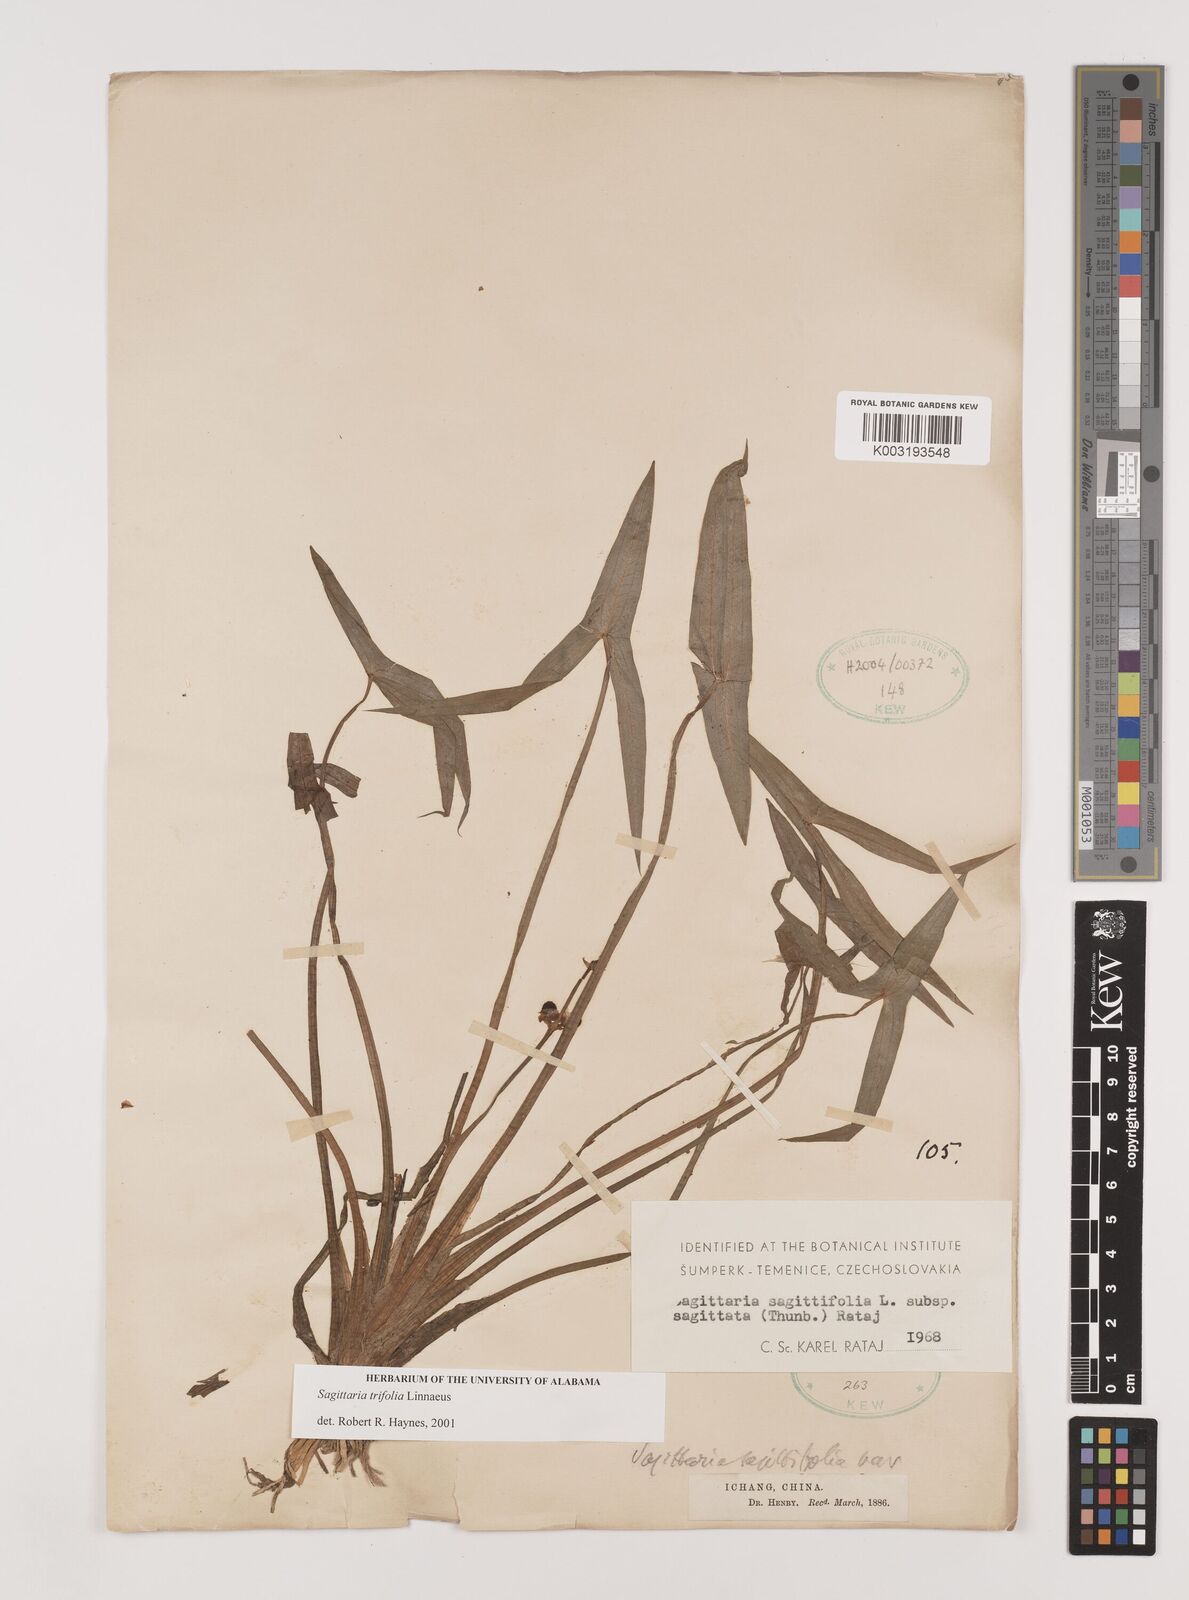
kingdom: Plantae
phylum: Tracheophyta
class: Liliopsida
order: Alismatales
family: Alismataceae
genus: Sagittaria
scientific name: Sagittaria trifolia
